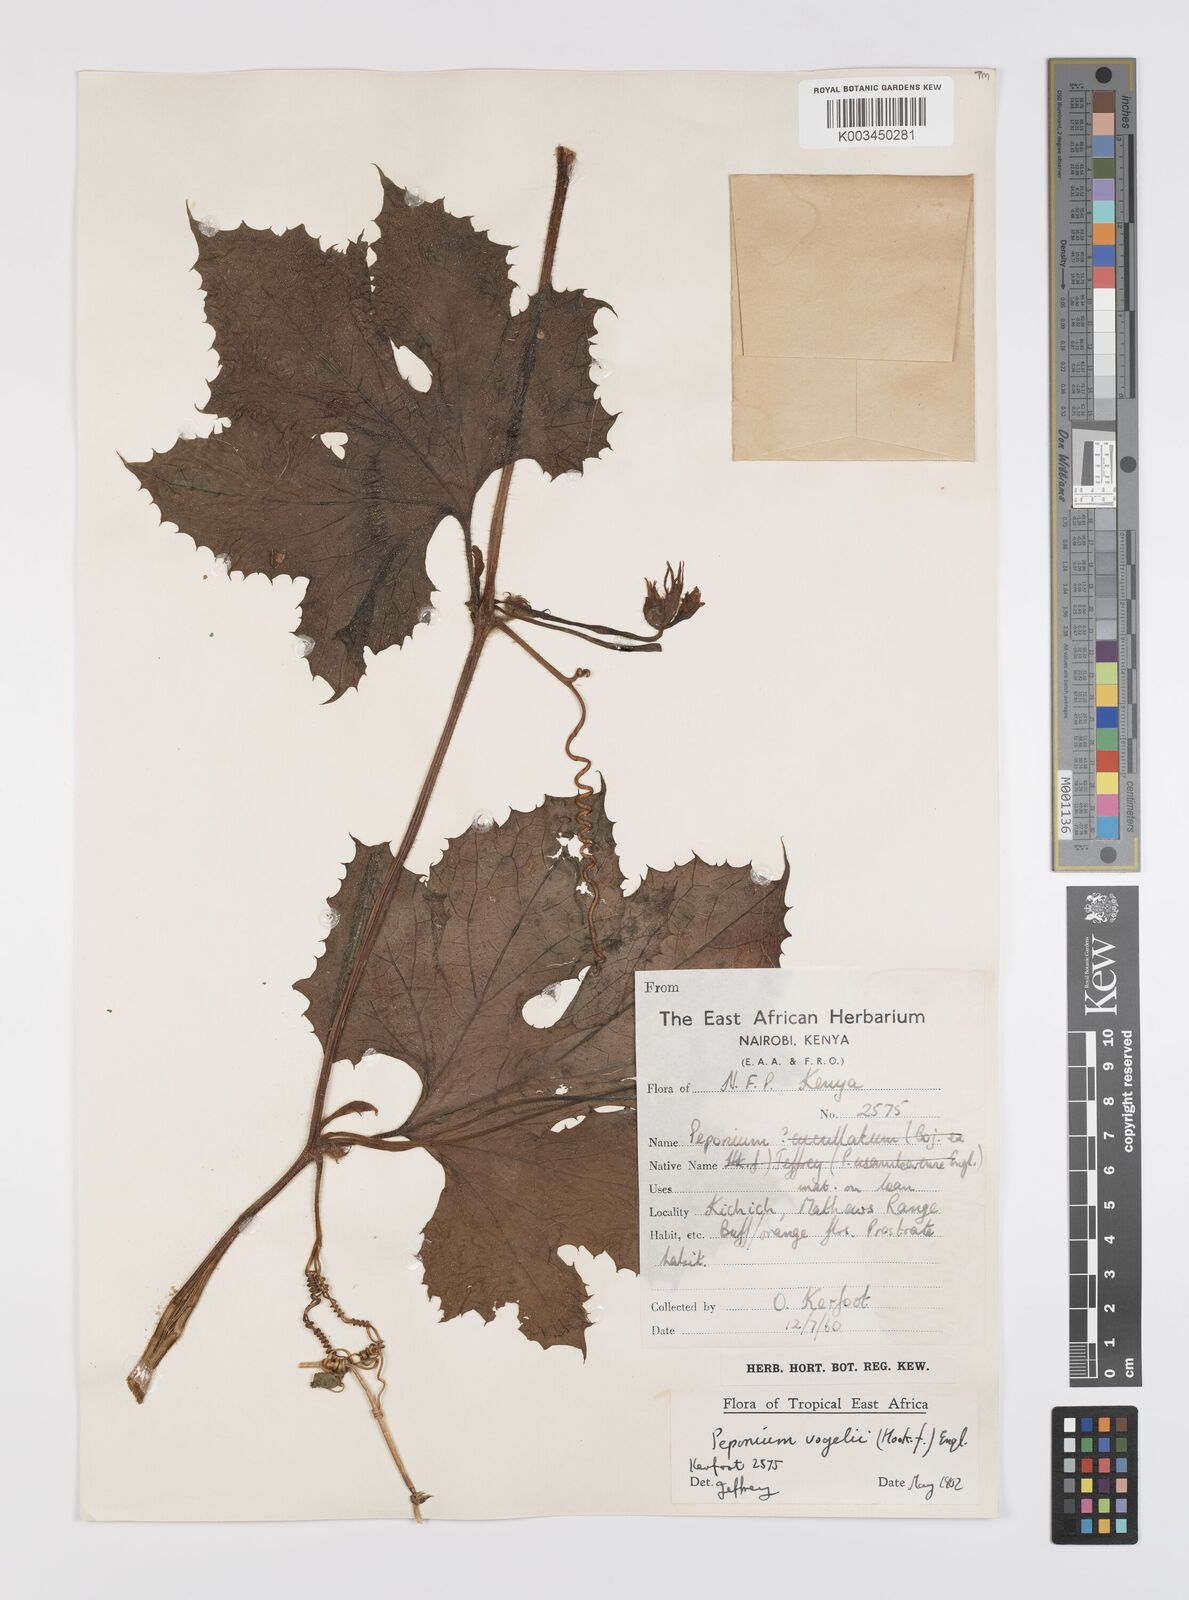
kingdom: Plantae
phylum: Tracheophyta
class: Magnoliopsida
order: Cucurbitales
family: Cucurbitaceae
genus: Peponium
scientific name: Peponium vogelii
